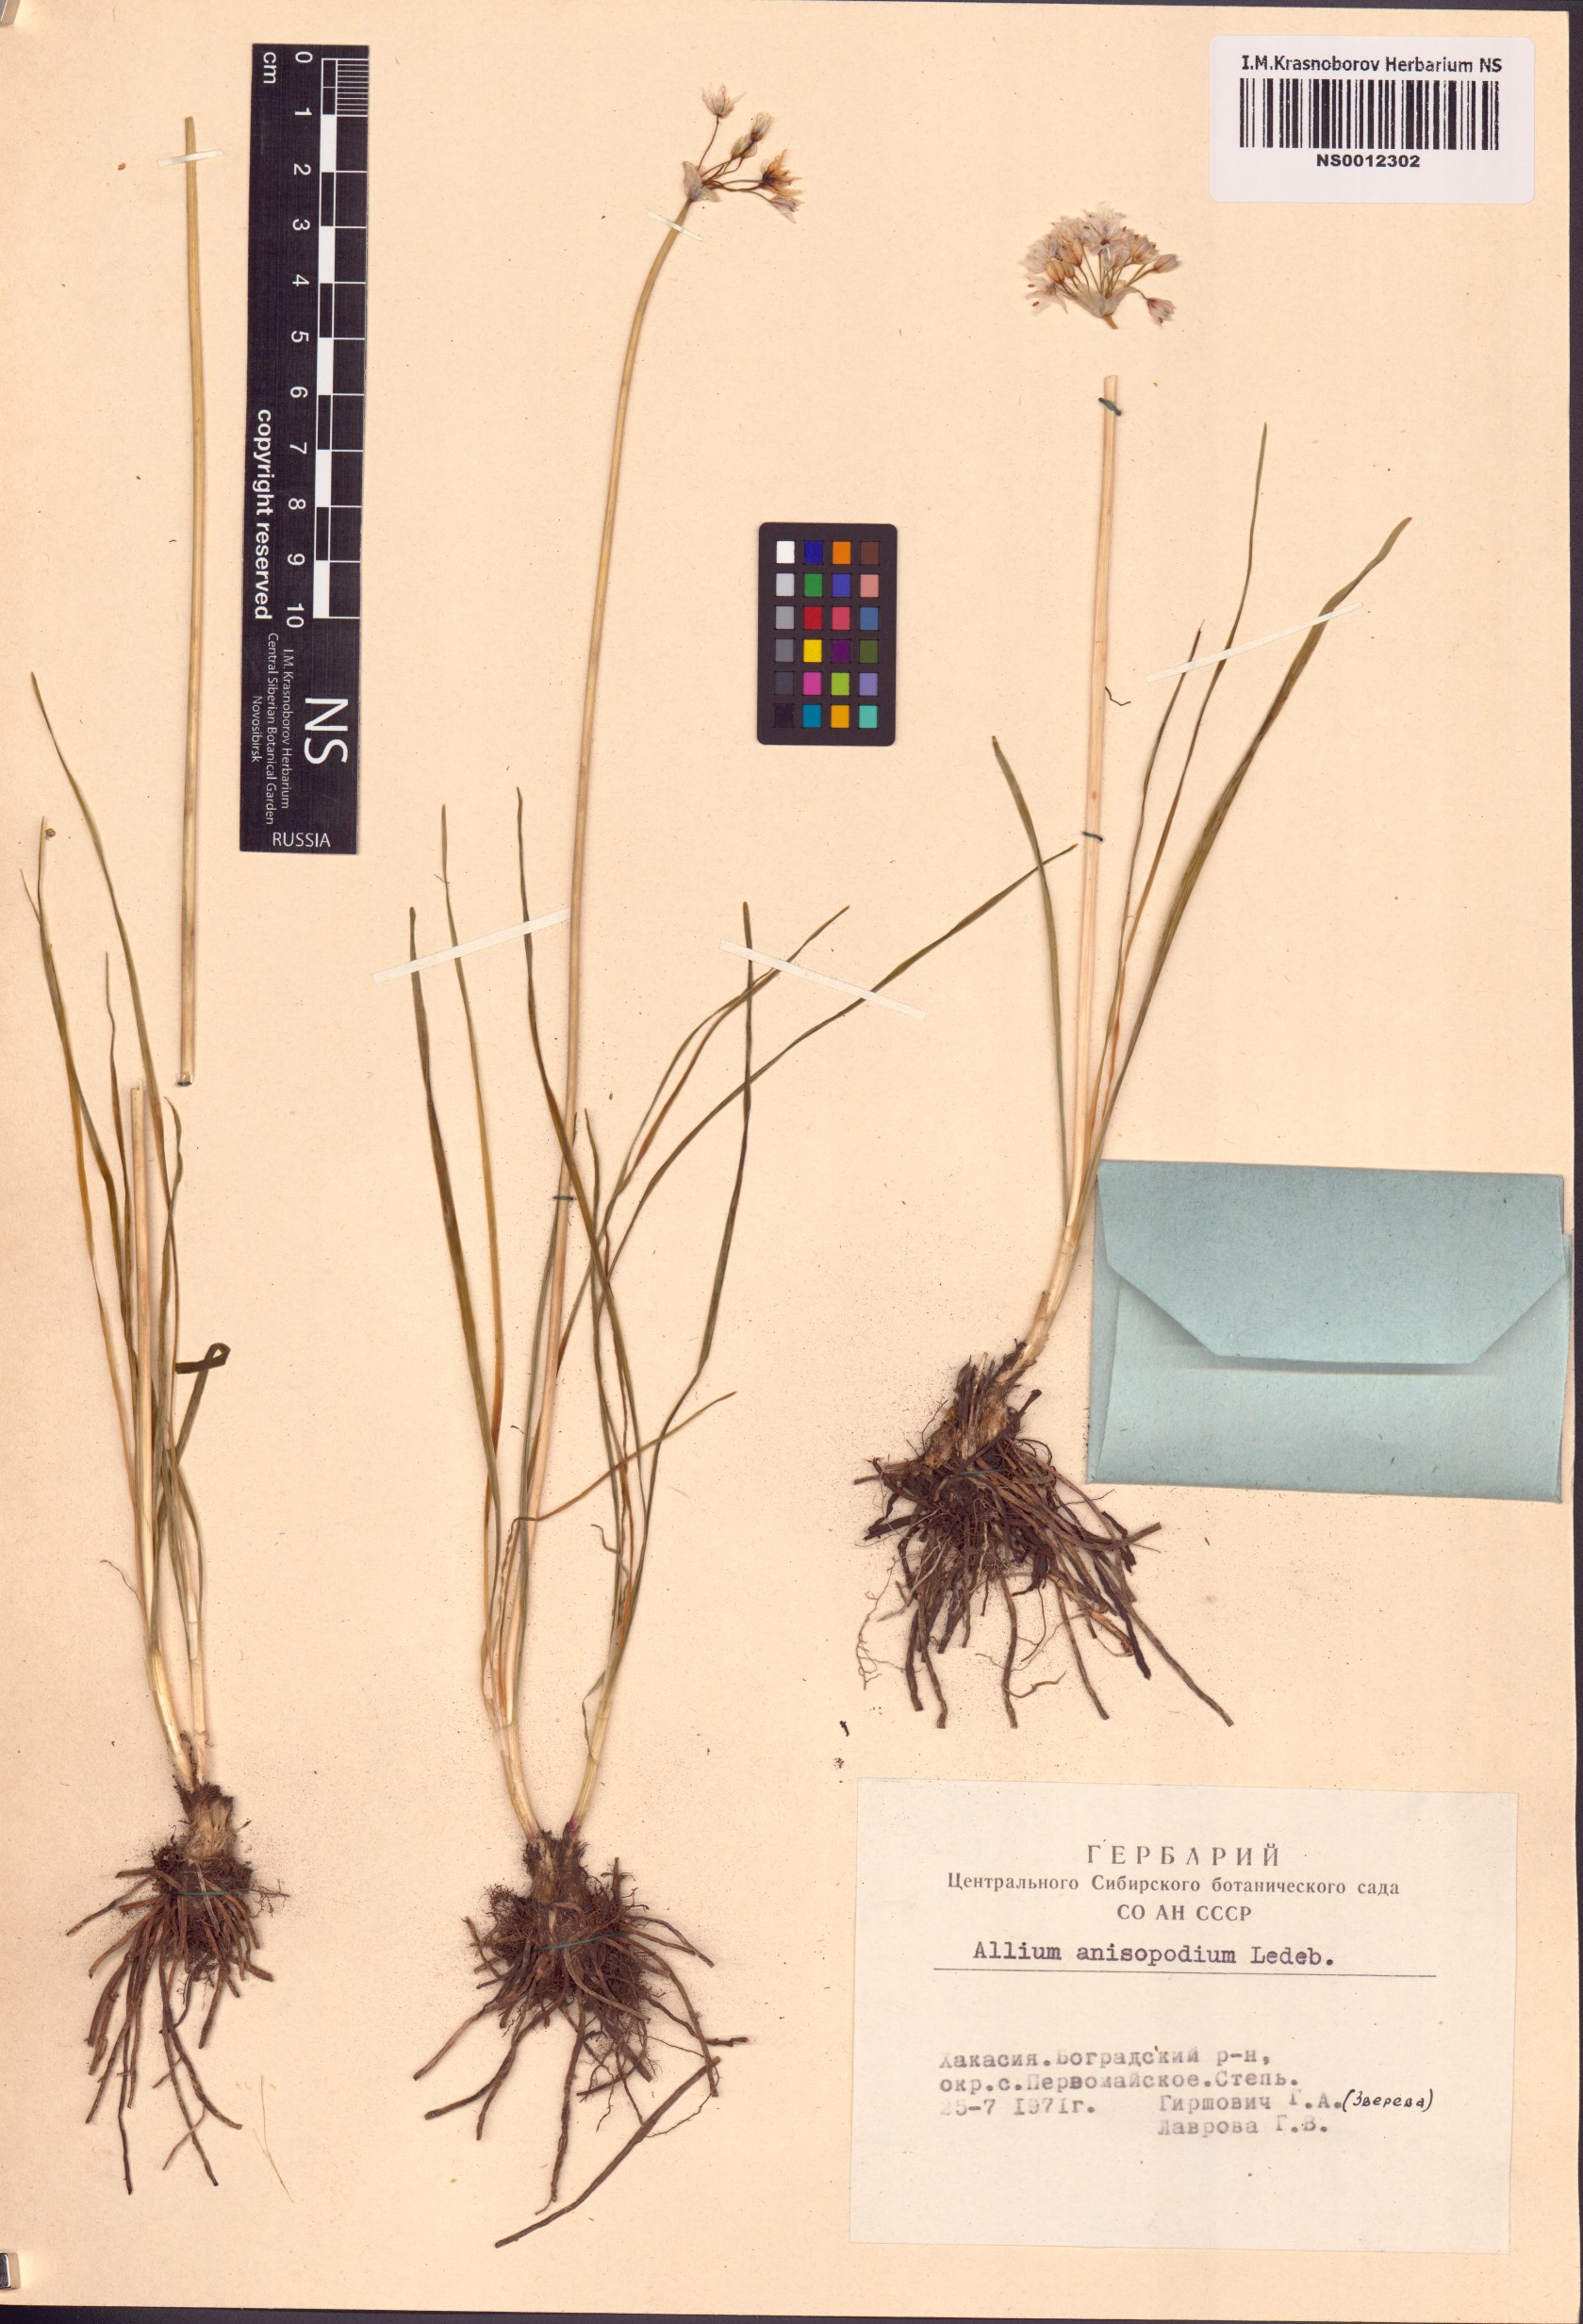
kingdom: Plantae
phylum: Tracheophyta
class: Liliopsida
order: Asparagales
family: Amaryllidaceae
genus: Allium
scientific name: Allium anisopodium
